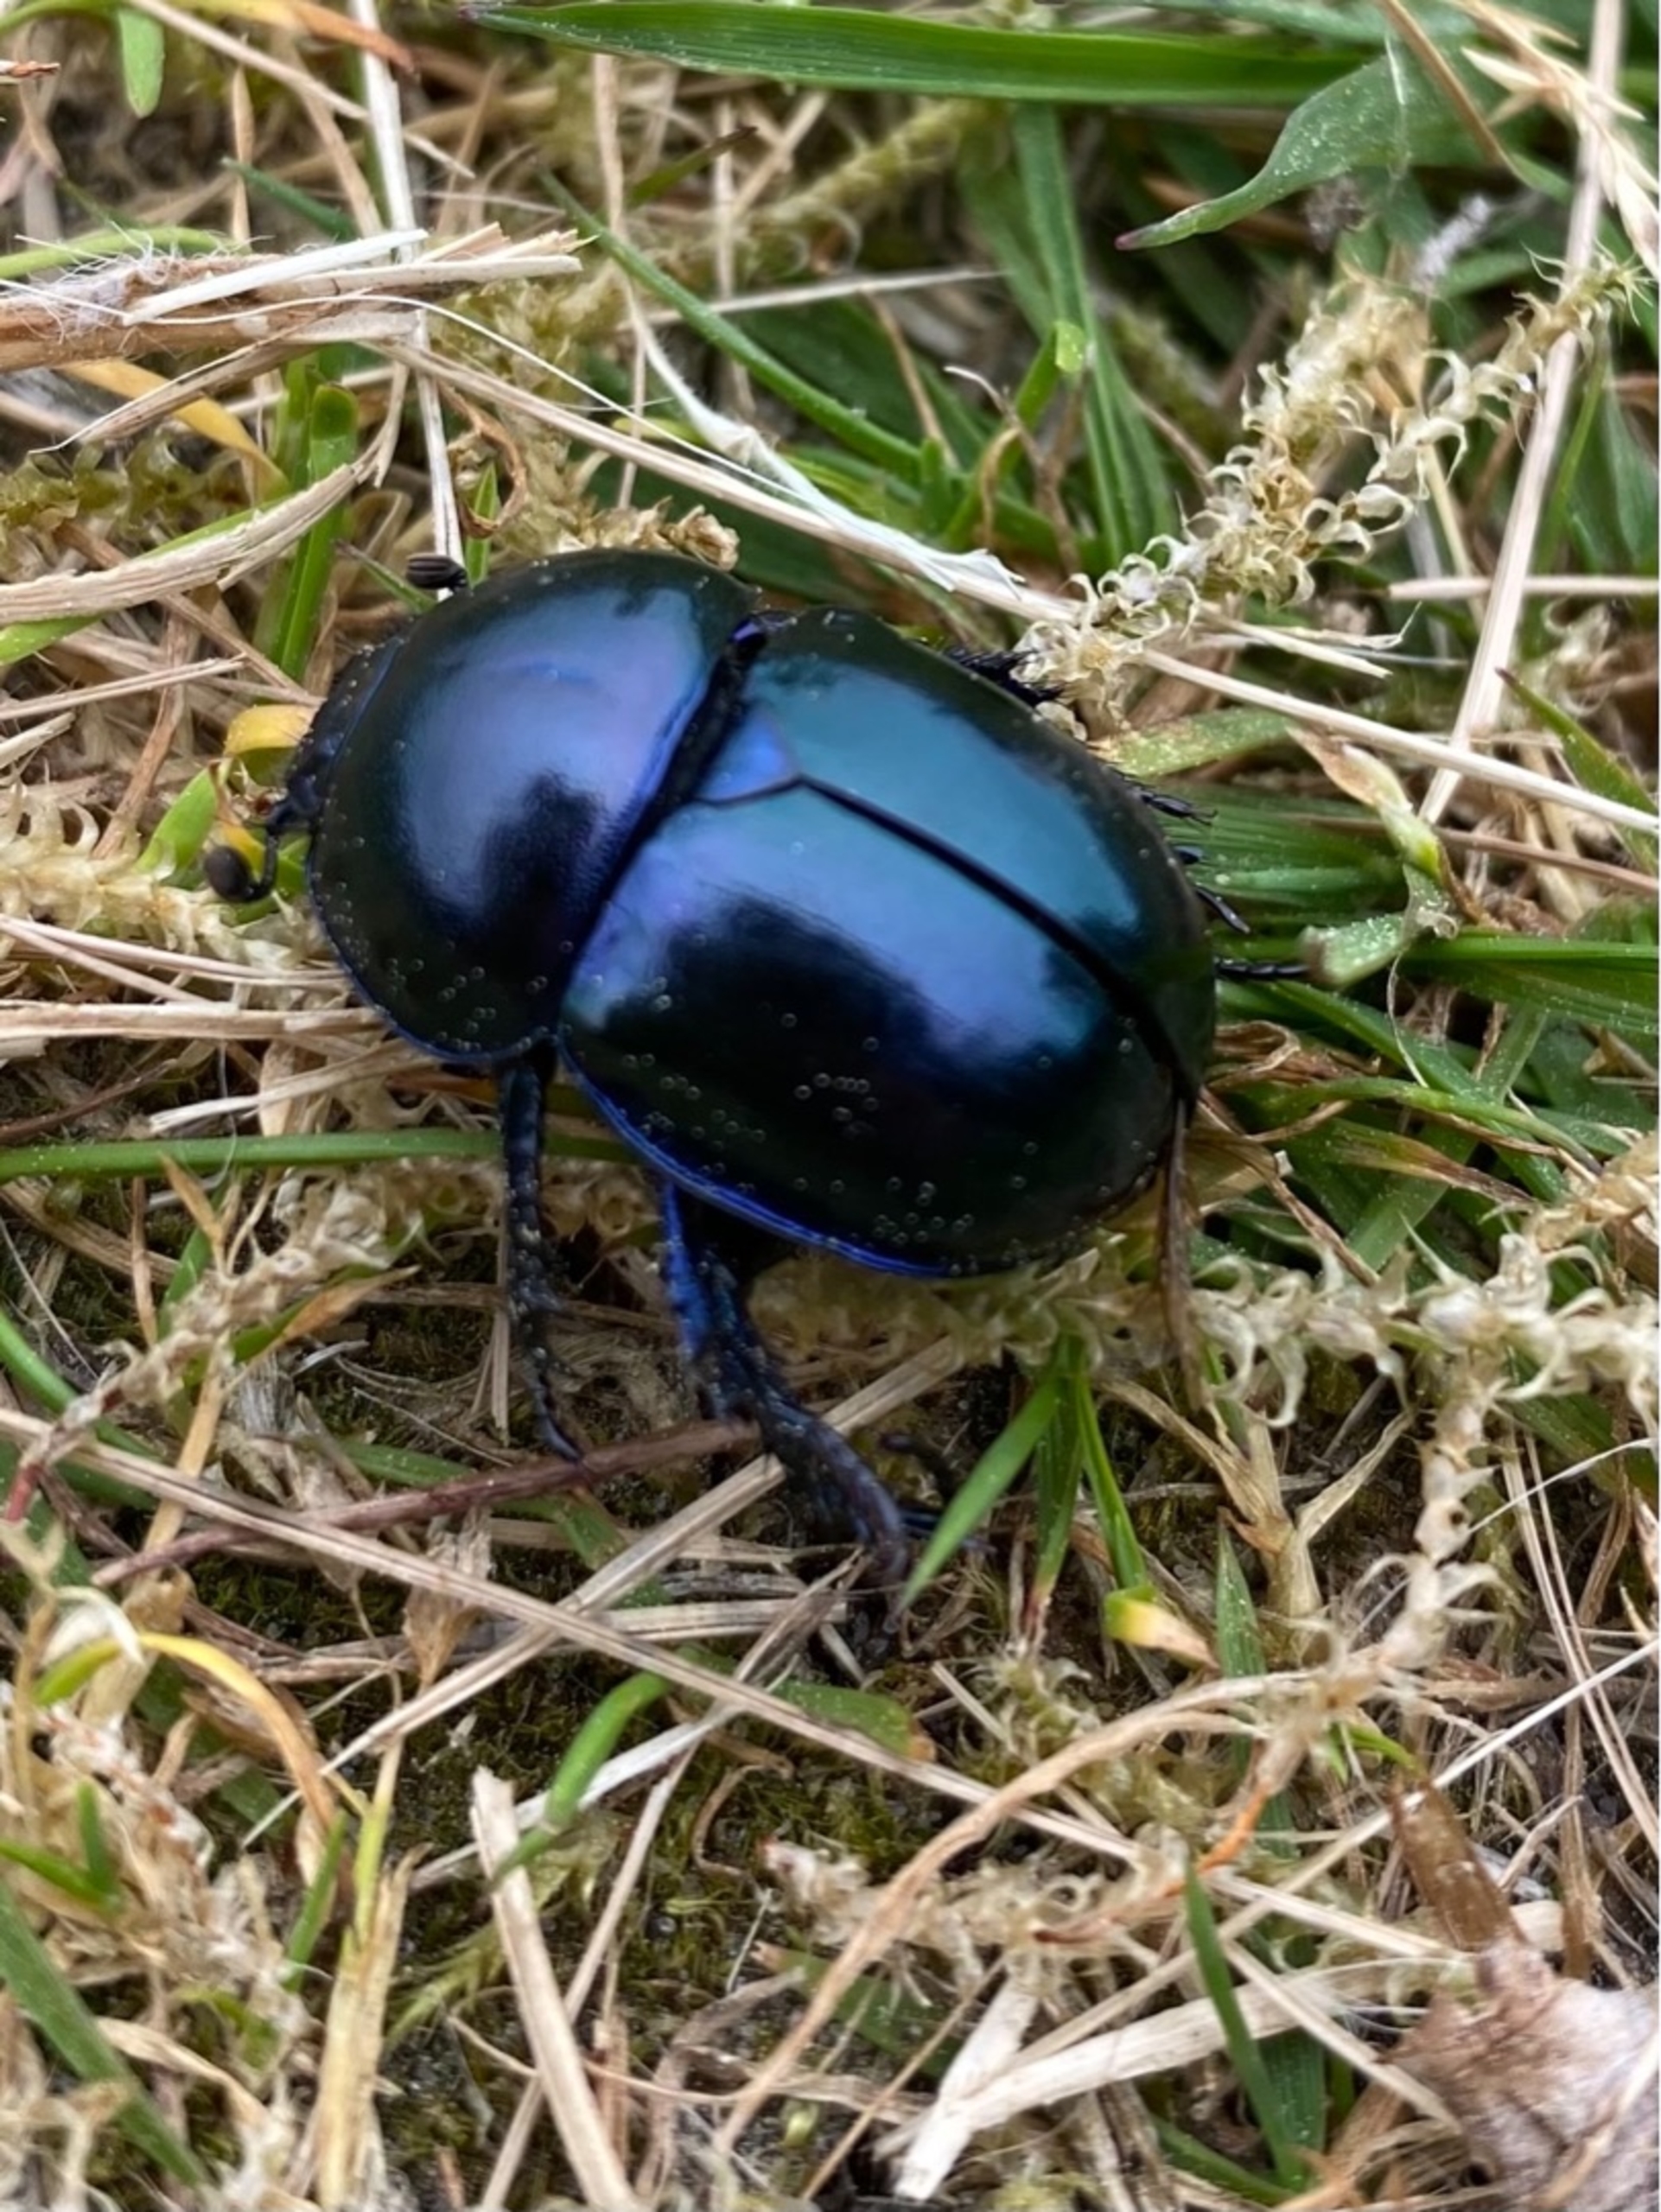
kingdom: Animalia
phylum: Arthropoda
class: Insecta
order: Coleoptera
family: Geotrupidae
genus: Trypocopris
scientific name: Trypocopris vernalis
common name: Glat skarnbasse
